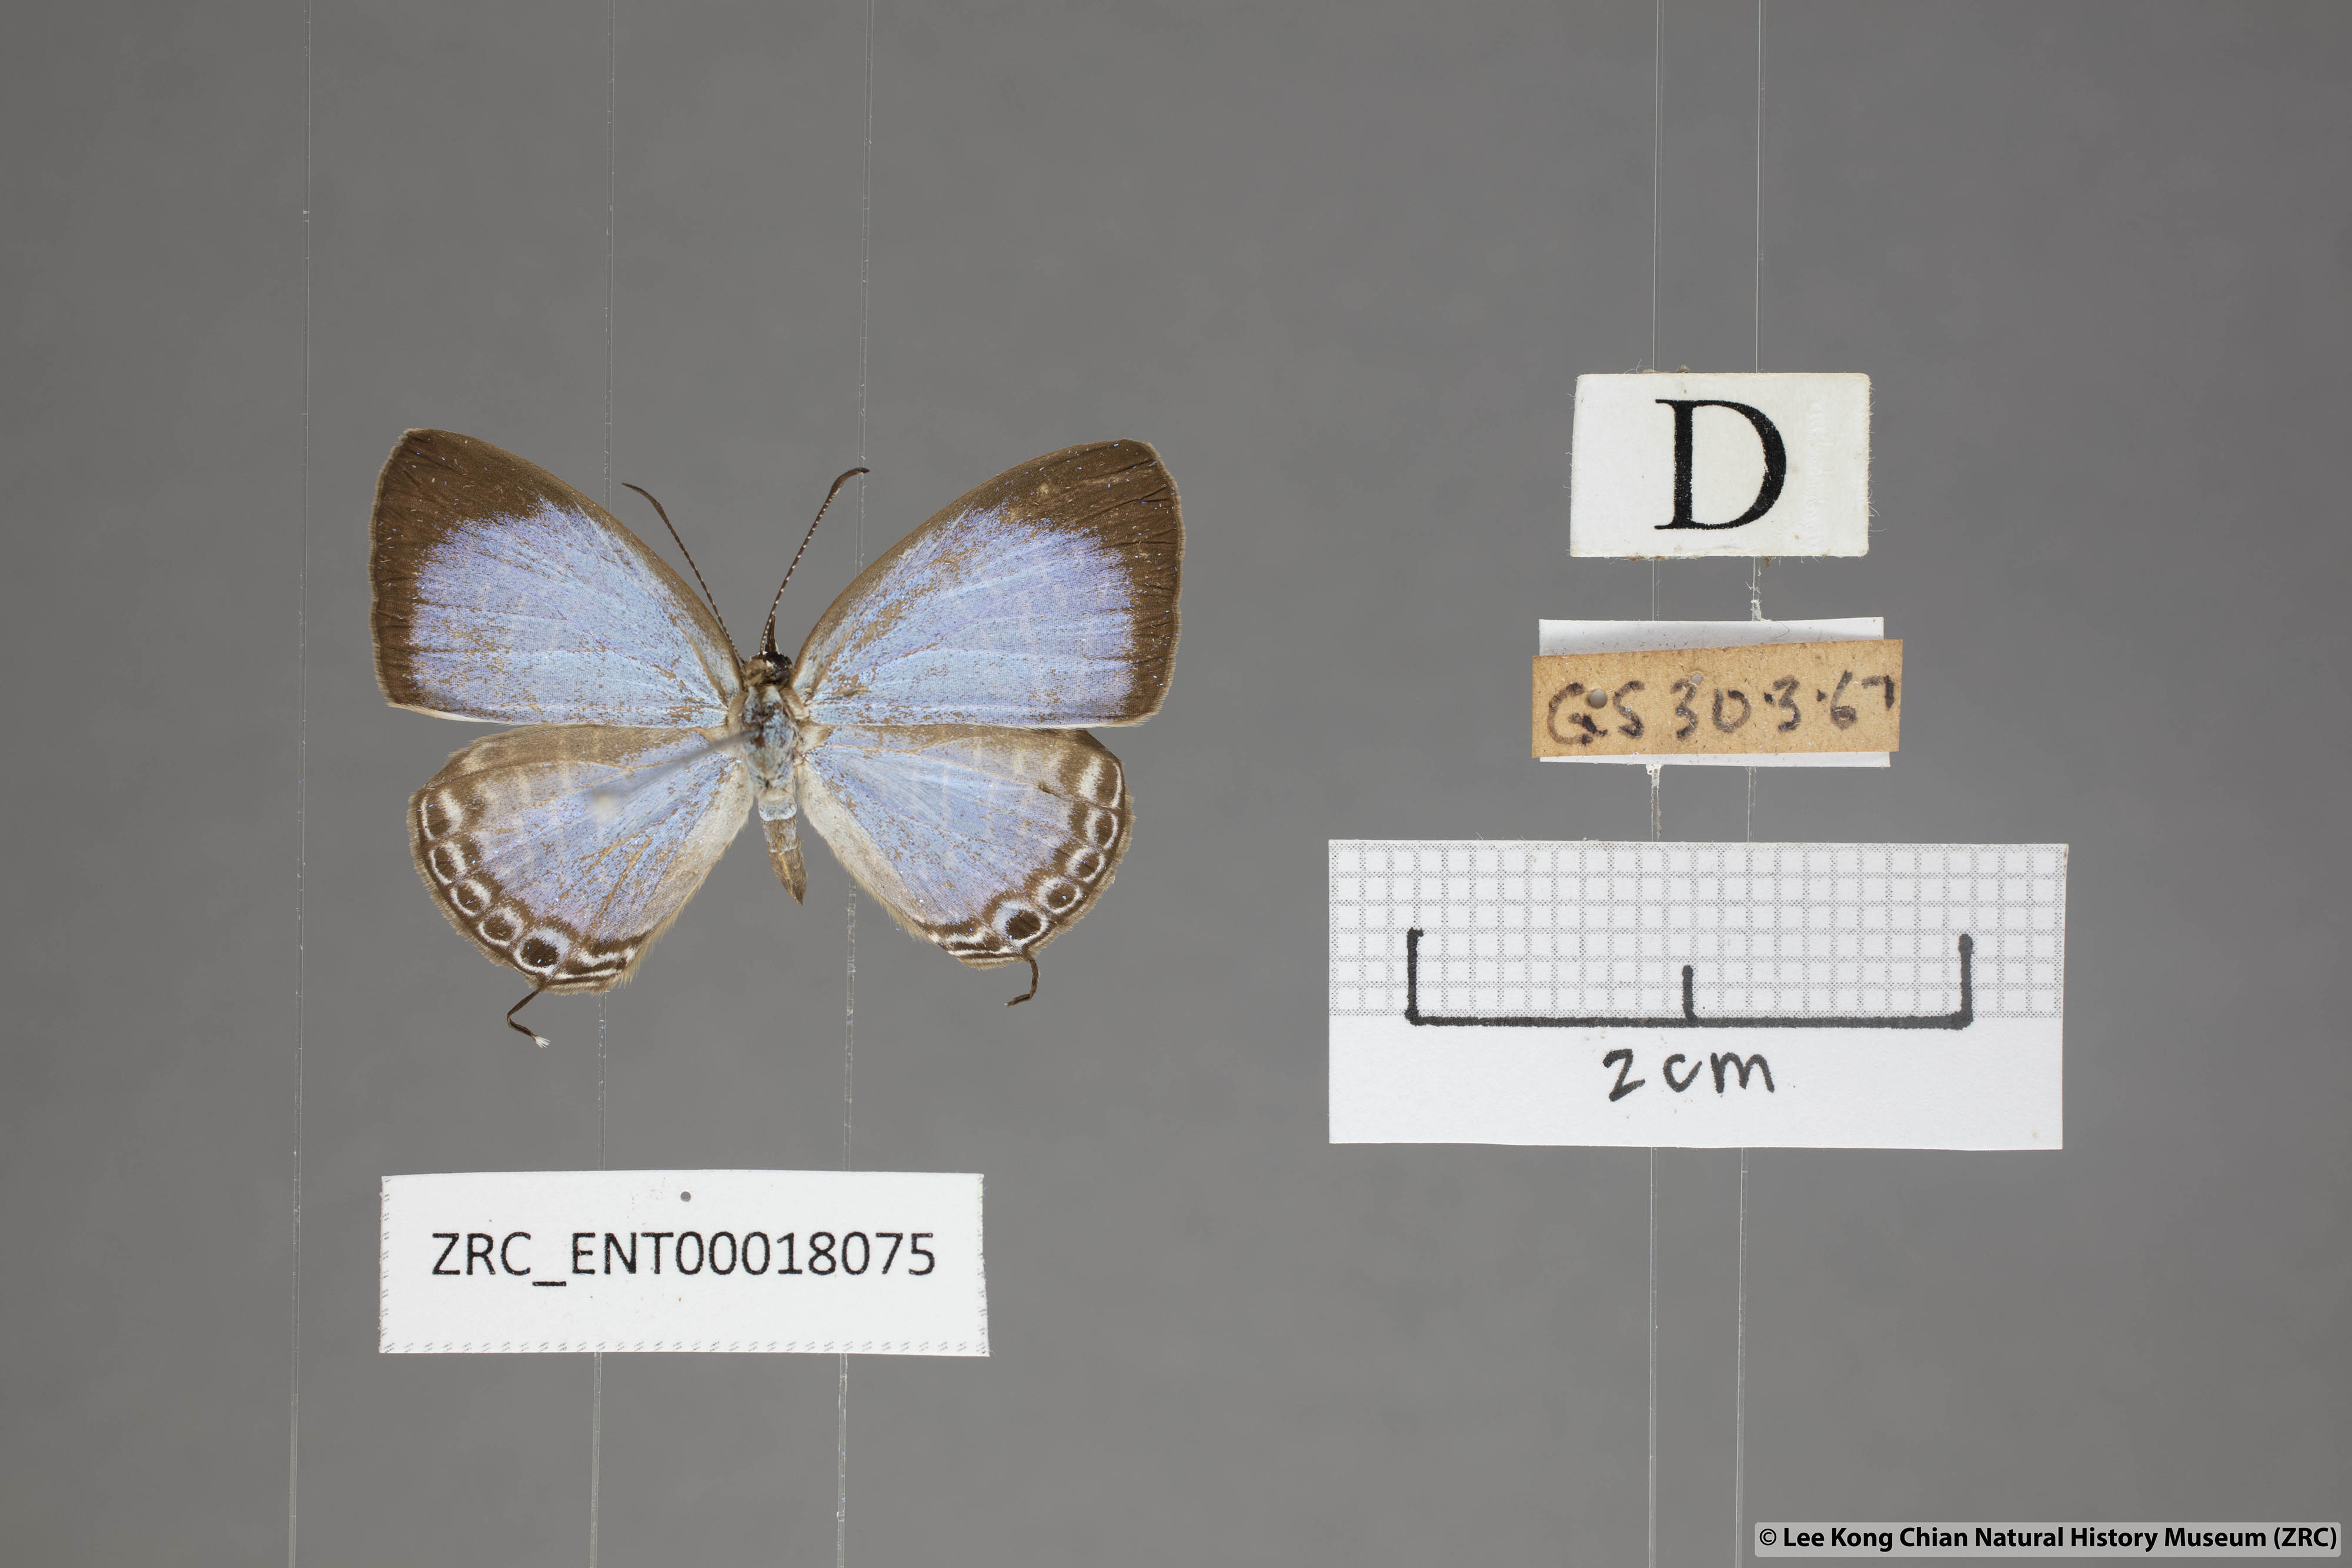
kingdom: Animalia
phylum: Arthropoda
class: Insecta
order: Lepidoptera
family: Lycaenidae
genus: Jamides
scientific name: Jamides caerulea
